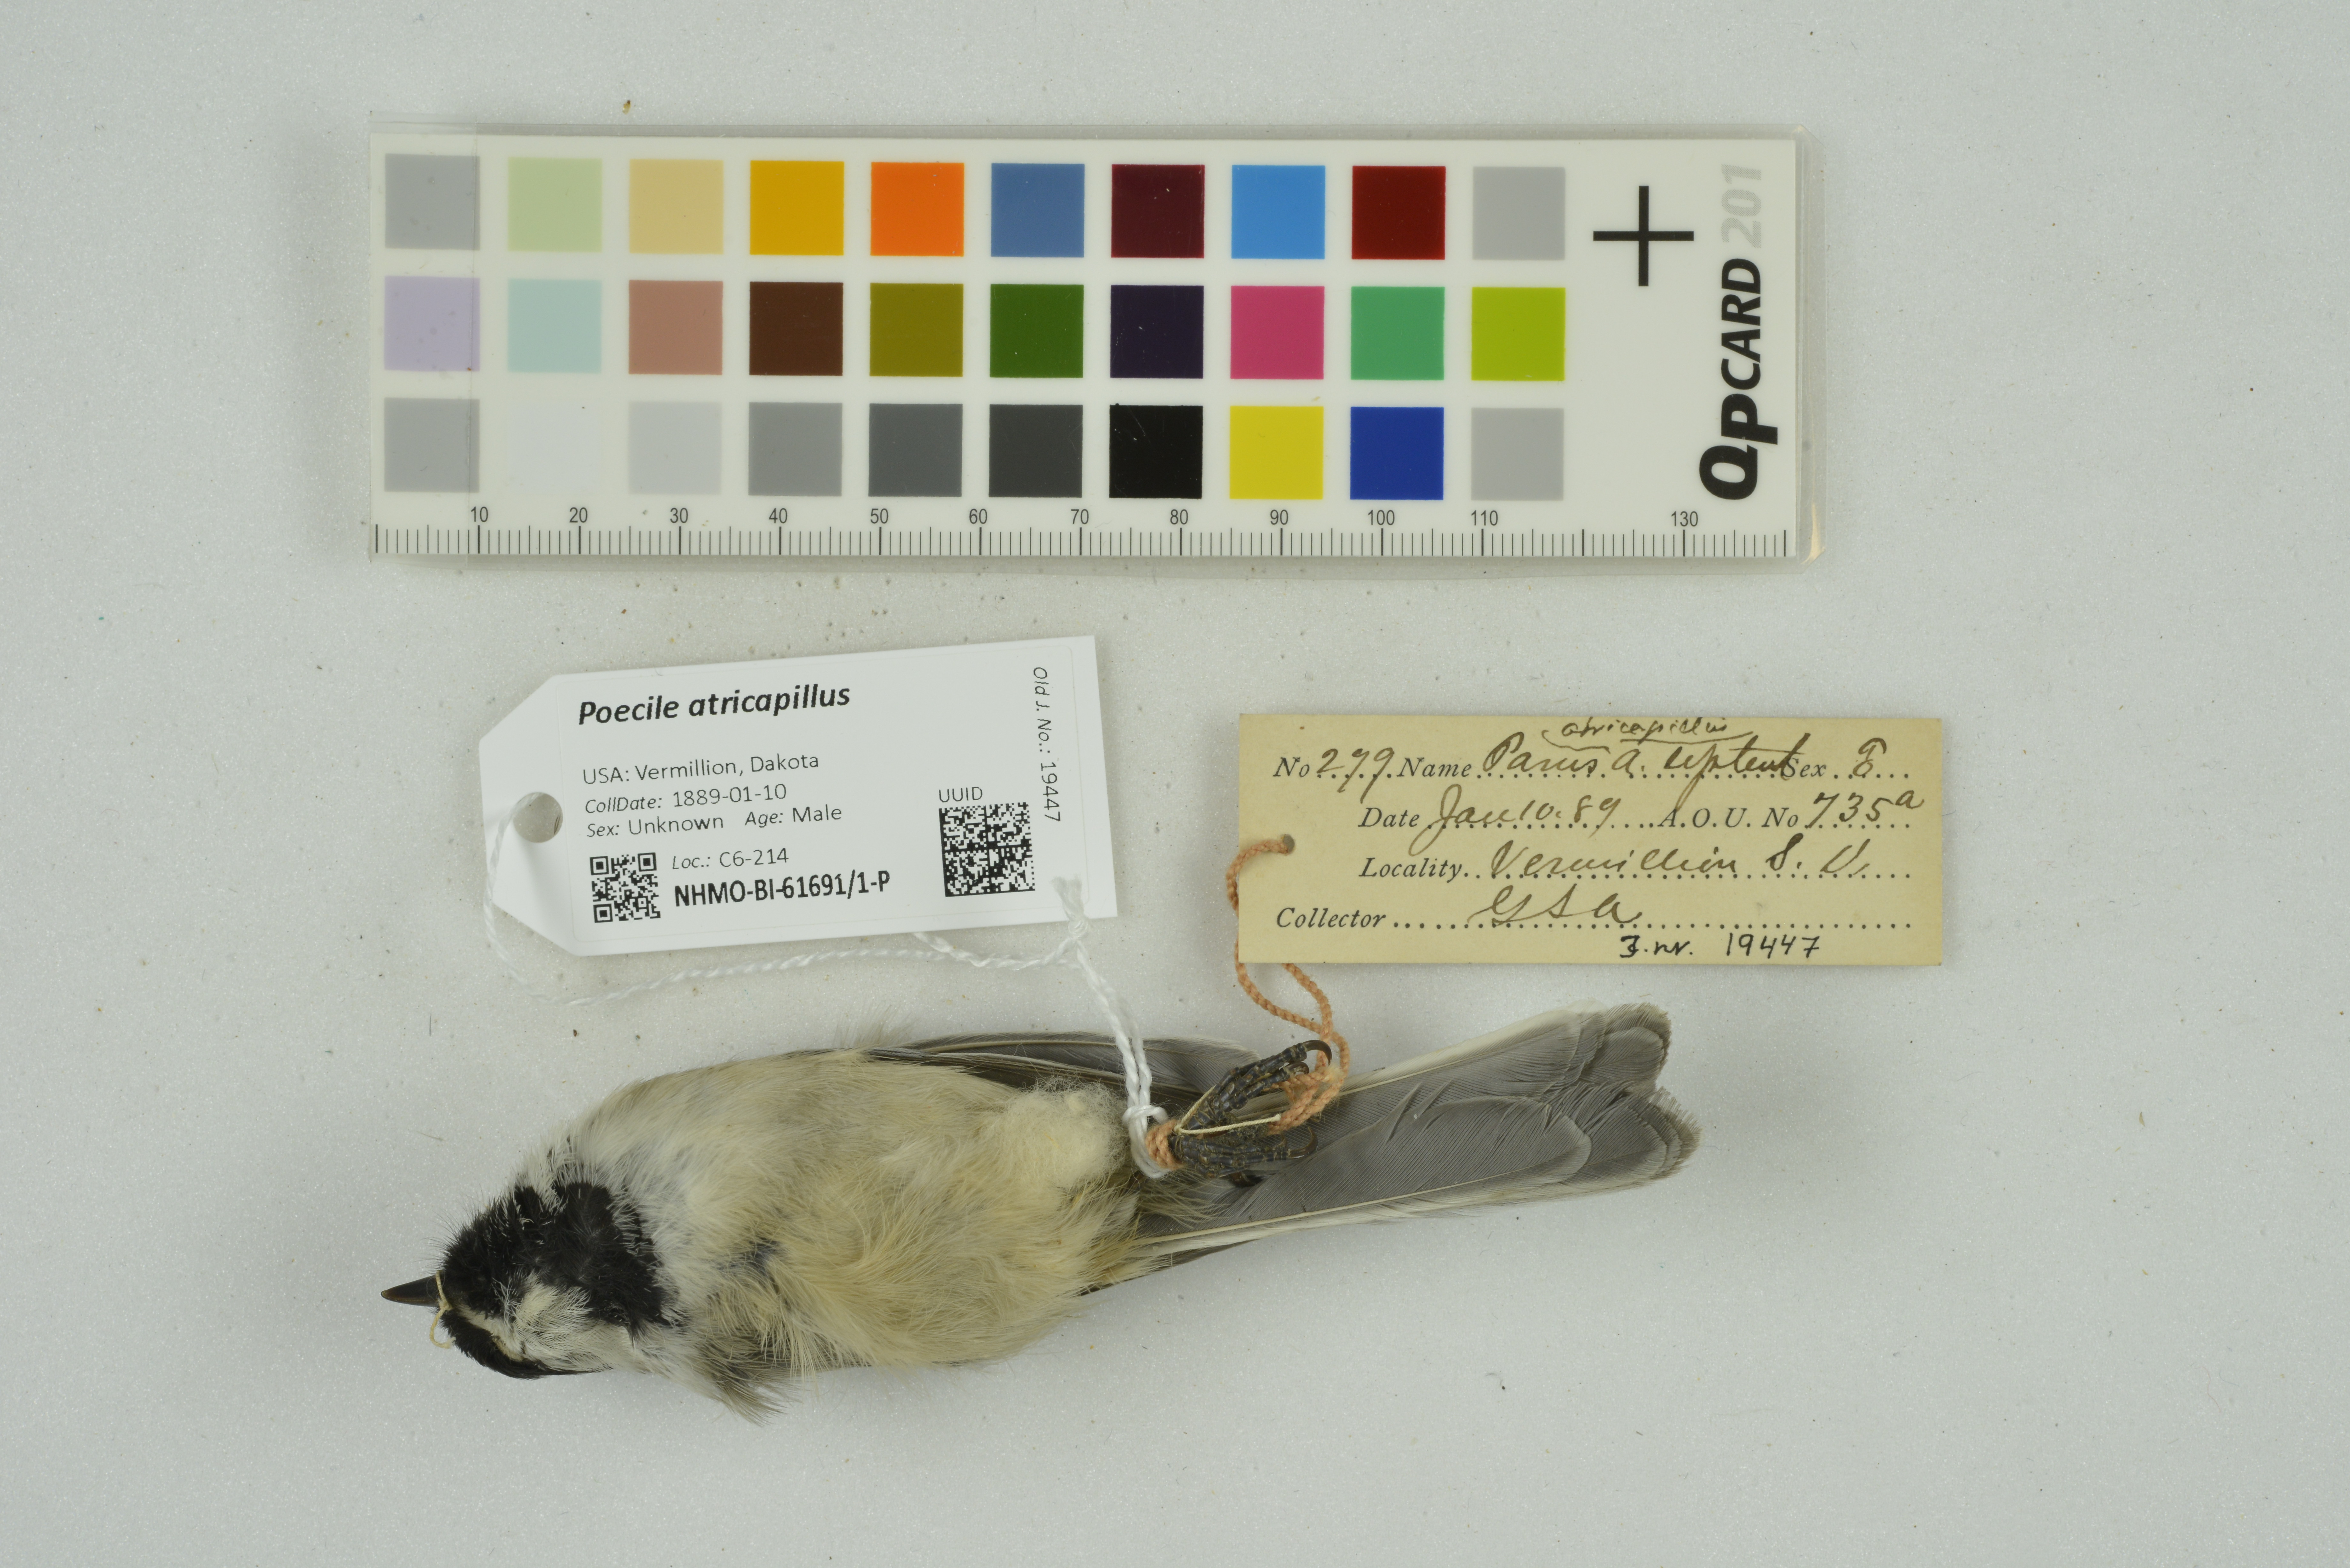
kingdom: Animalia
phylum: Chordata
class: Aves
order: Passeriformes
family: Paridae
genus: Poecile
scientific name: Poecile atricapillus
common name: Black-capped chickadee
